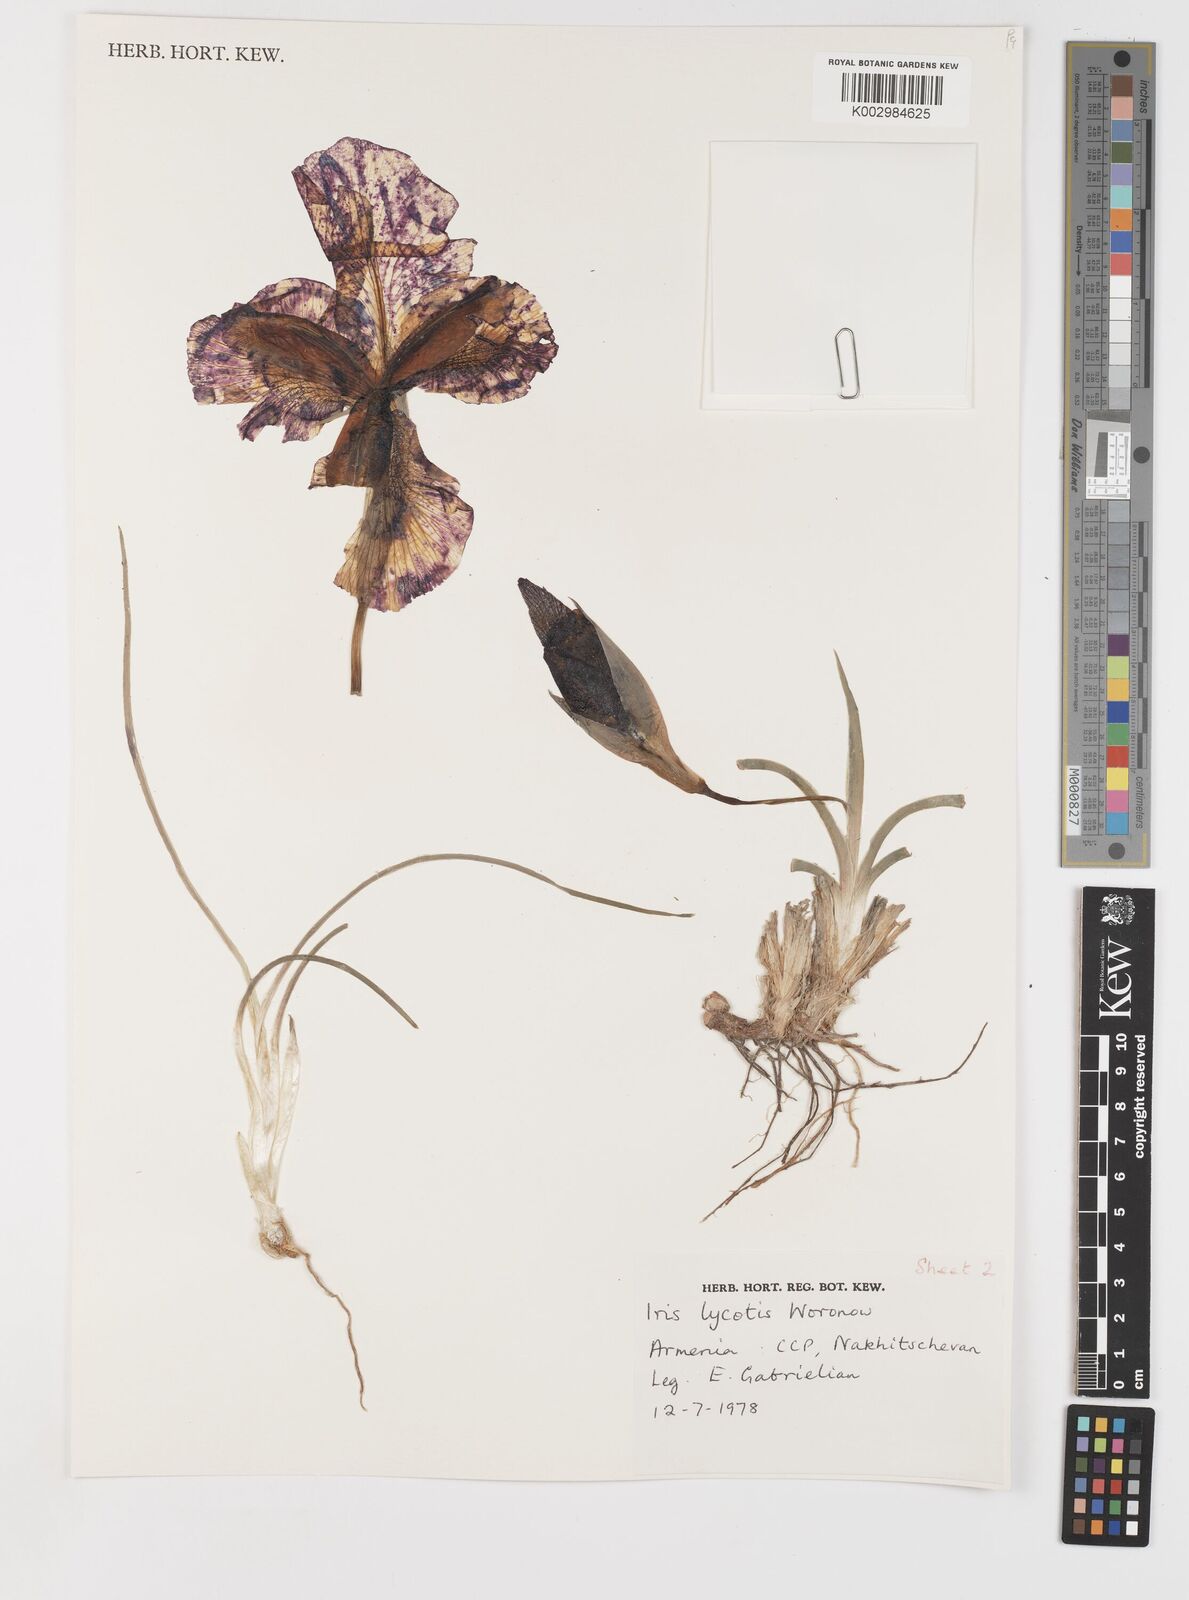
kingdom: Plantae
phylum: Tracheophyta
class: Liliopsida
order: Asparagales
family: Iridaceae
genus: Iris
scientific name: Iris lycotis
